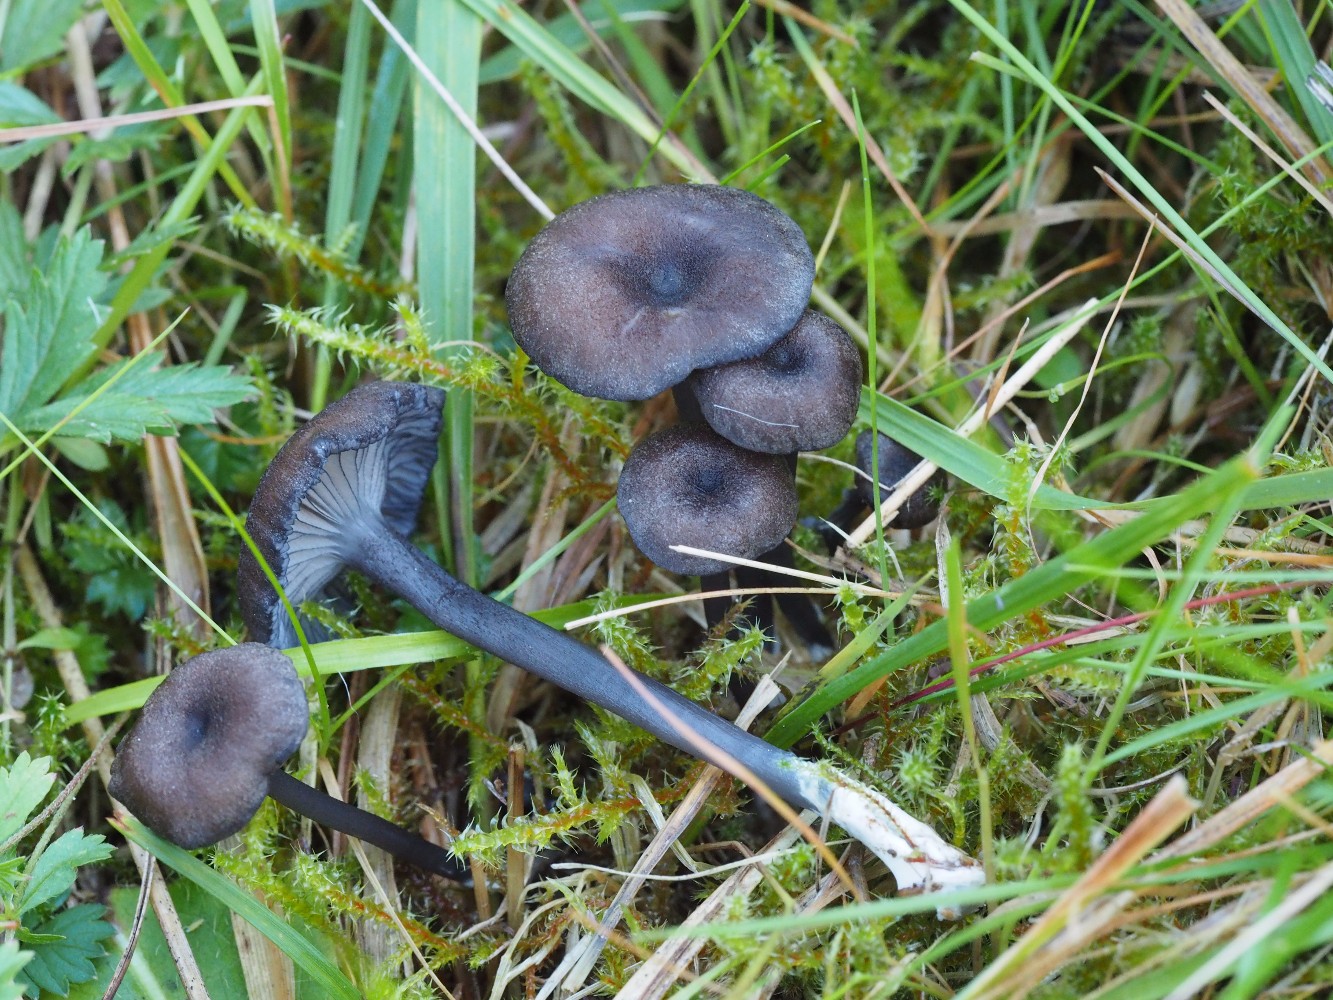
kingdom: Fungi
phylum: Basidiomycota
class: Agaricomycetes
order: Agaricales
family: Entolomataceae
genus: Entoloma
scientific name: Entoloma
